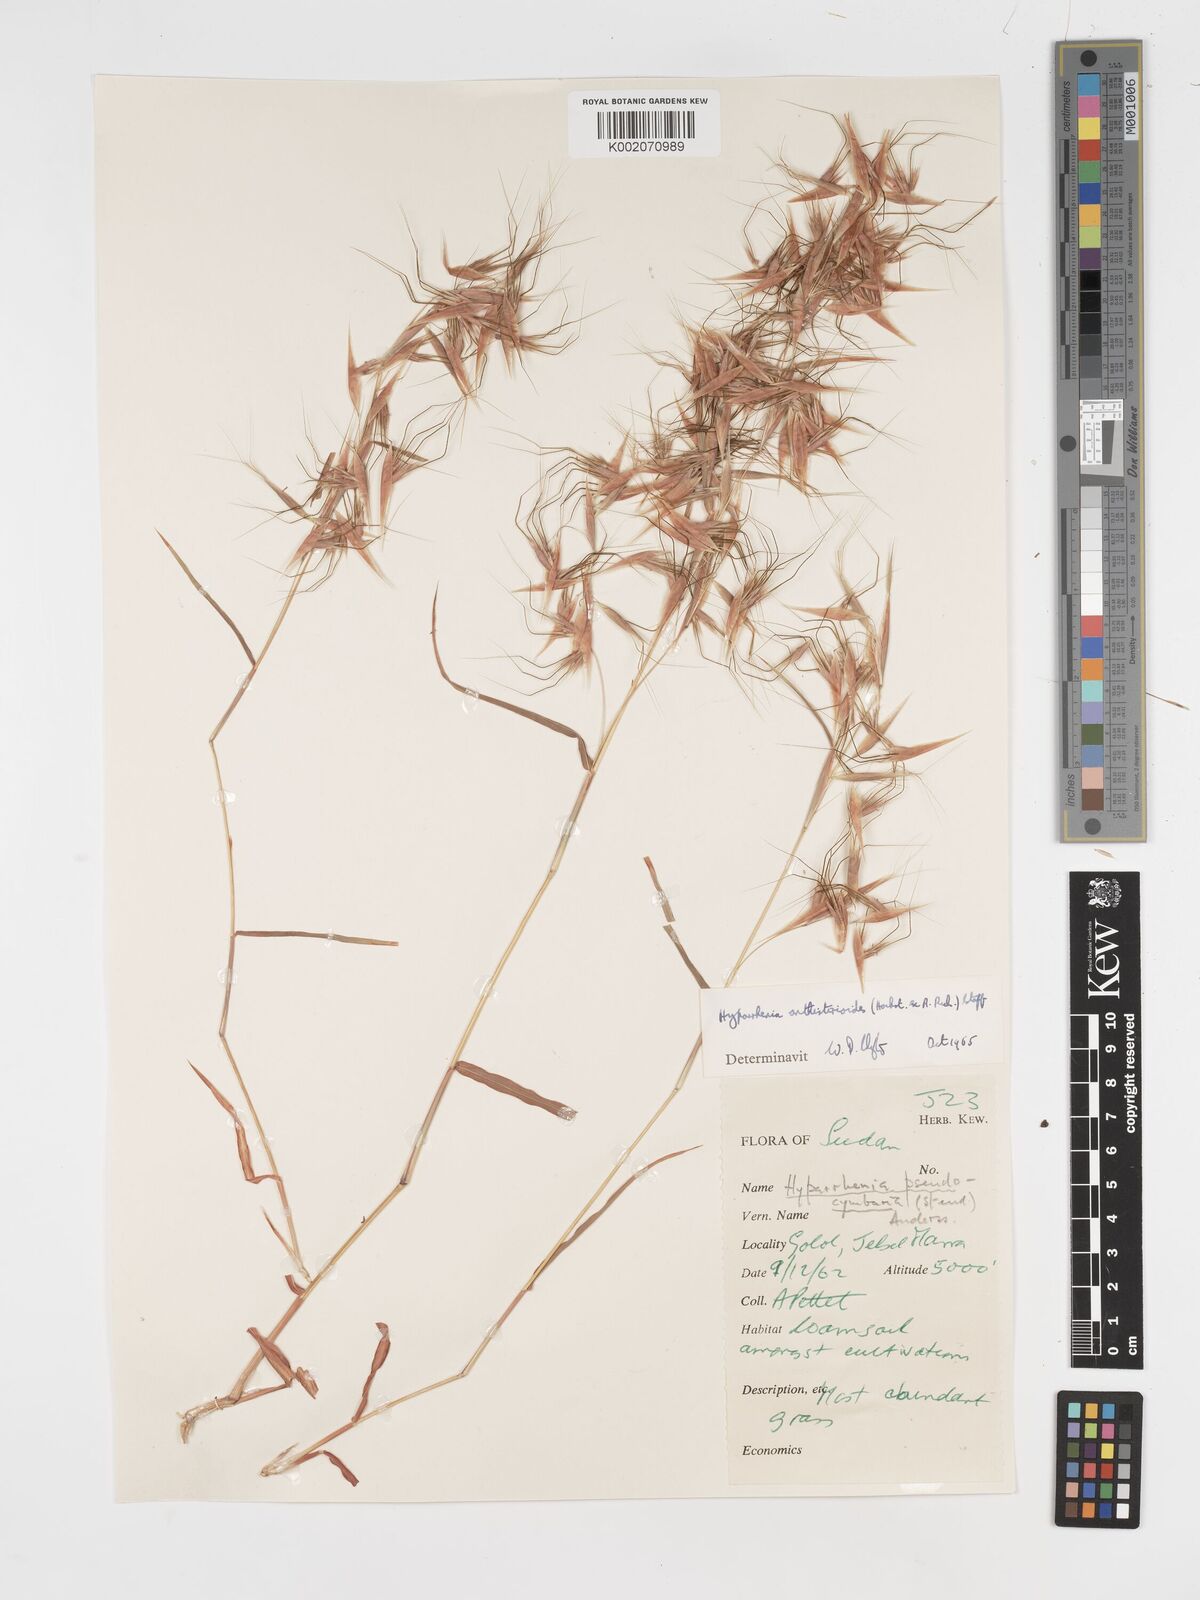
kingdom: Plantae
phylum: Tracheophyta
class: Liliopsida
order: Poales
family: Poaceae
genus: Hyparrhenia
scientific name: Hyparrhenia anthistirioides
